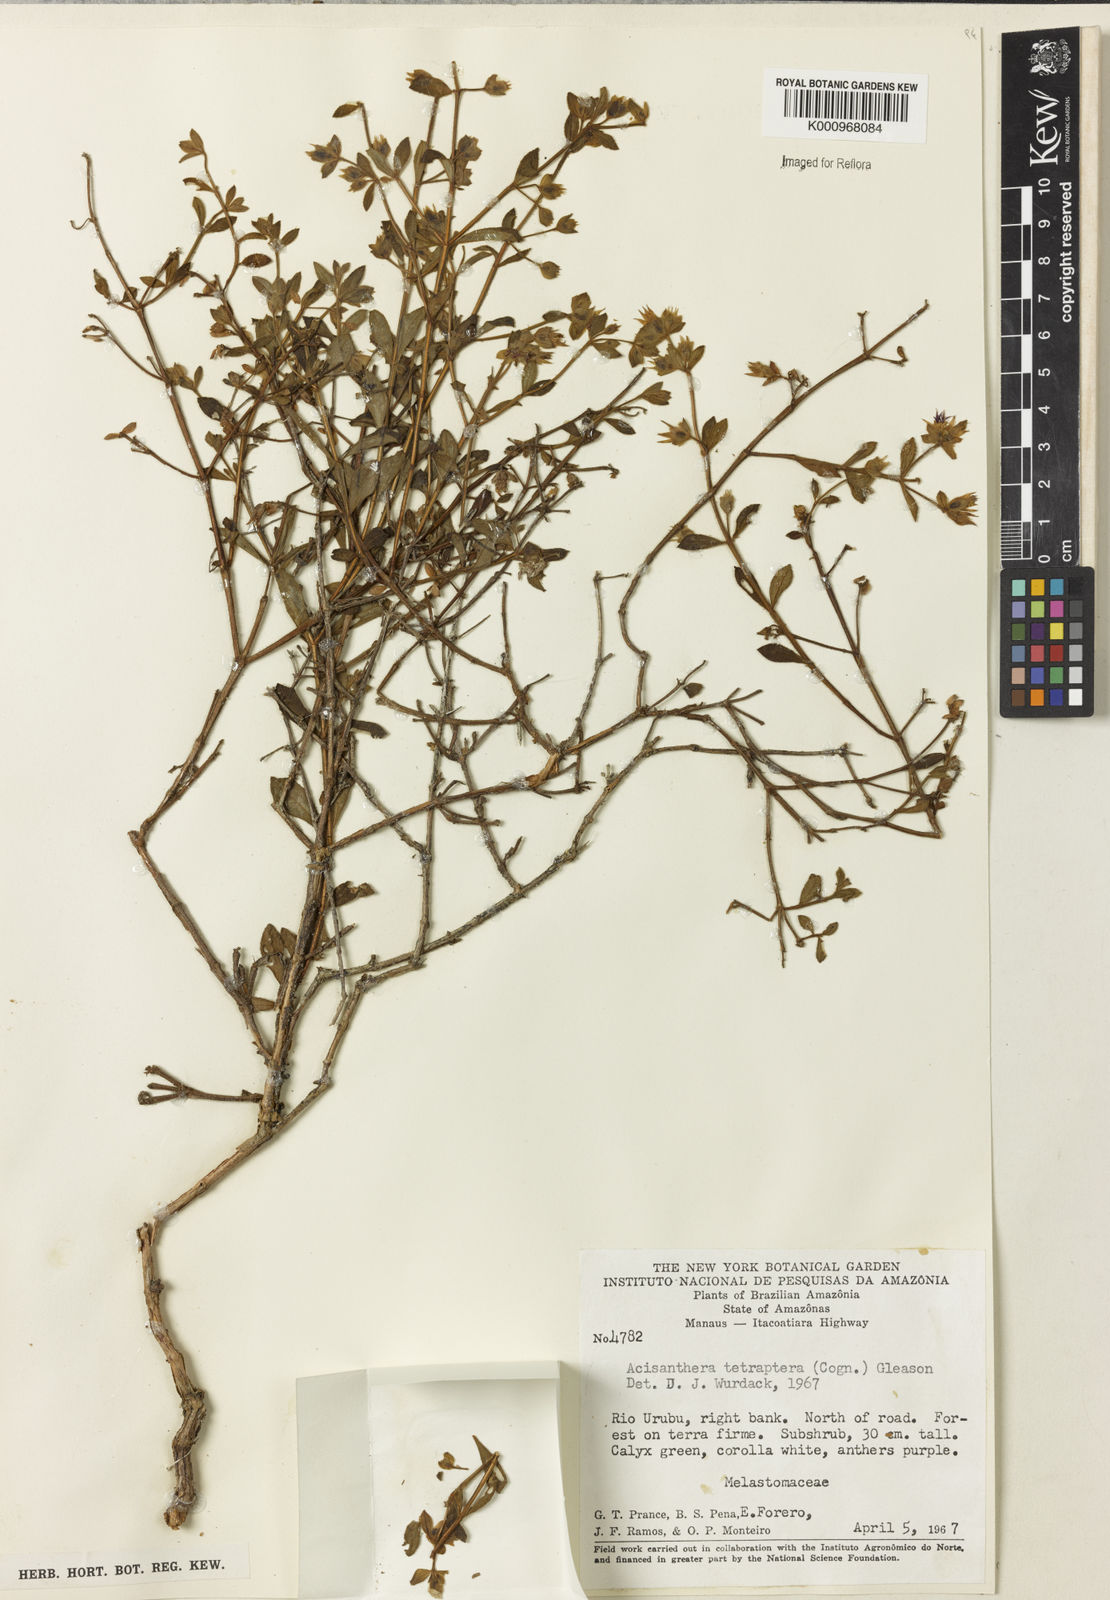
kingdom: Plantae
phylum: Tracheophyta
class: Magnoliopsida
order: Myrtales
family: Melastomataceae
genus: Rostranthera
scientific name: Rostranthera tetraptera
